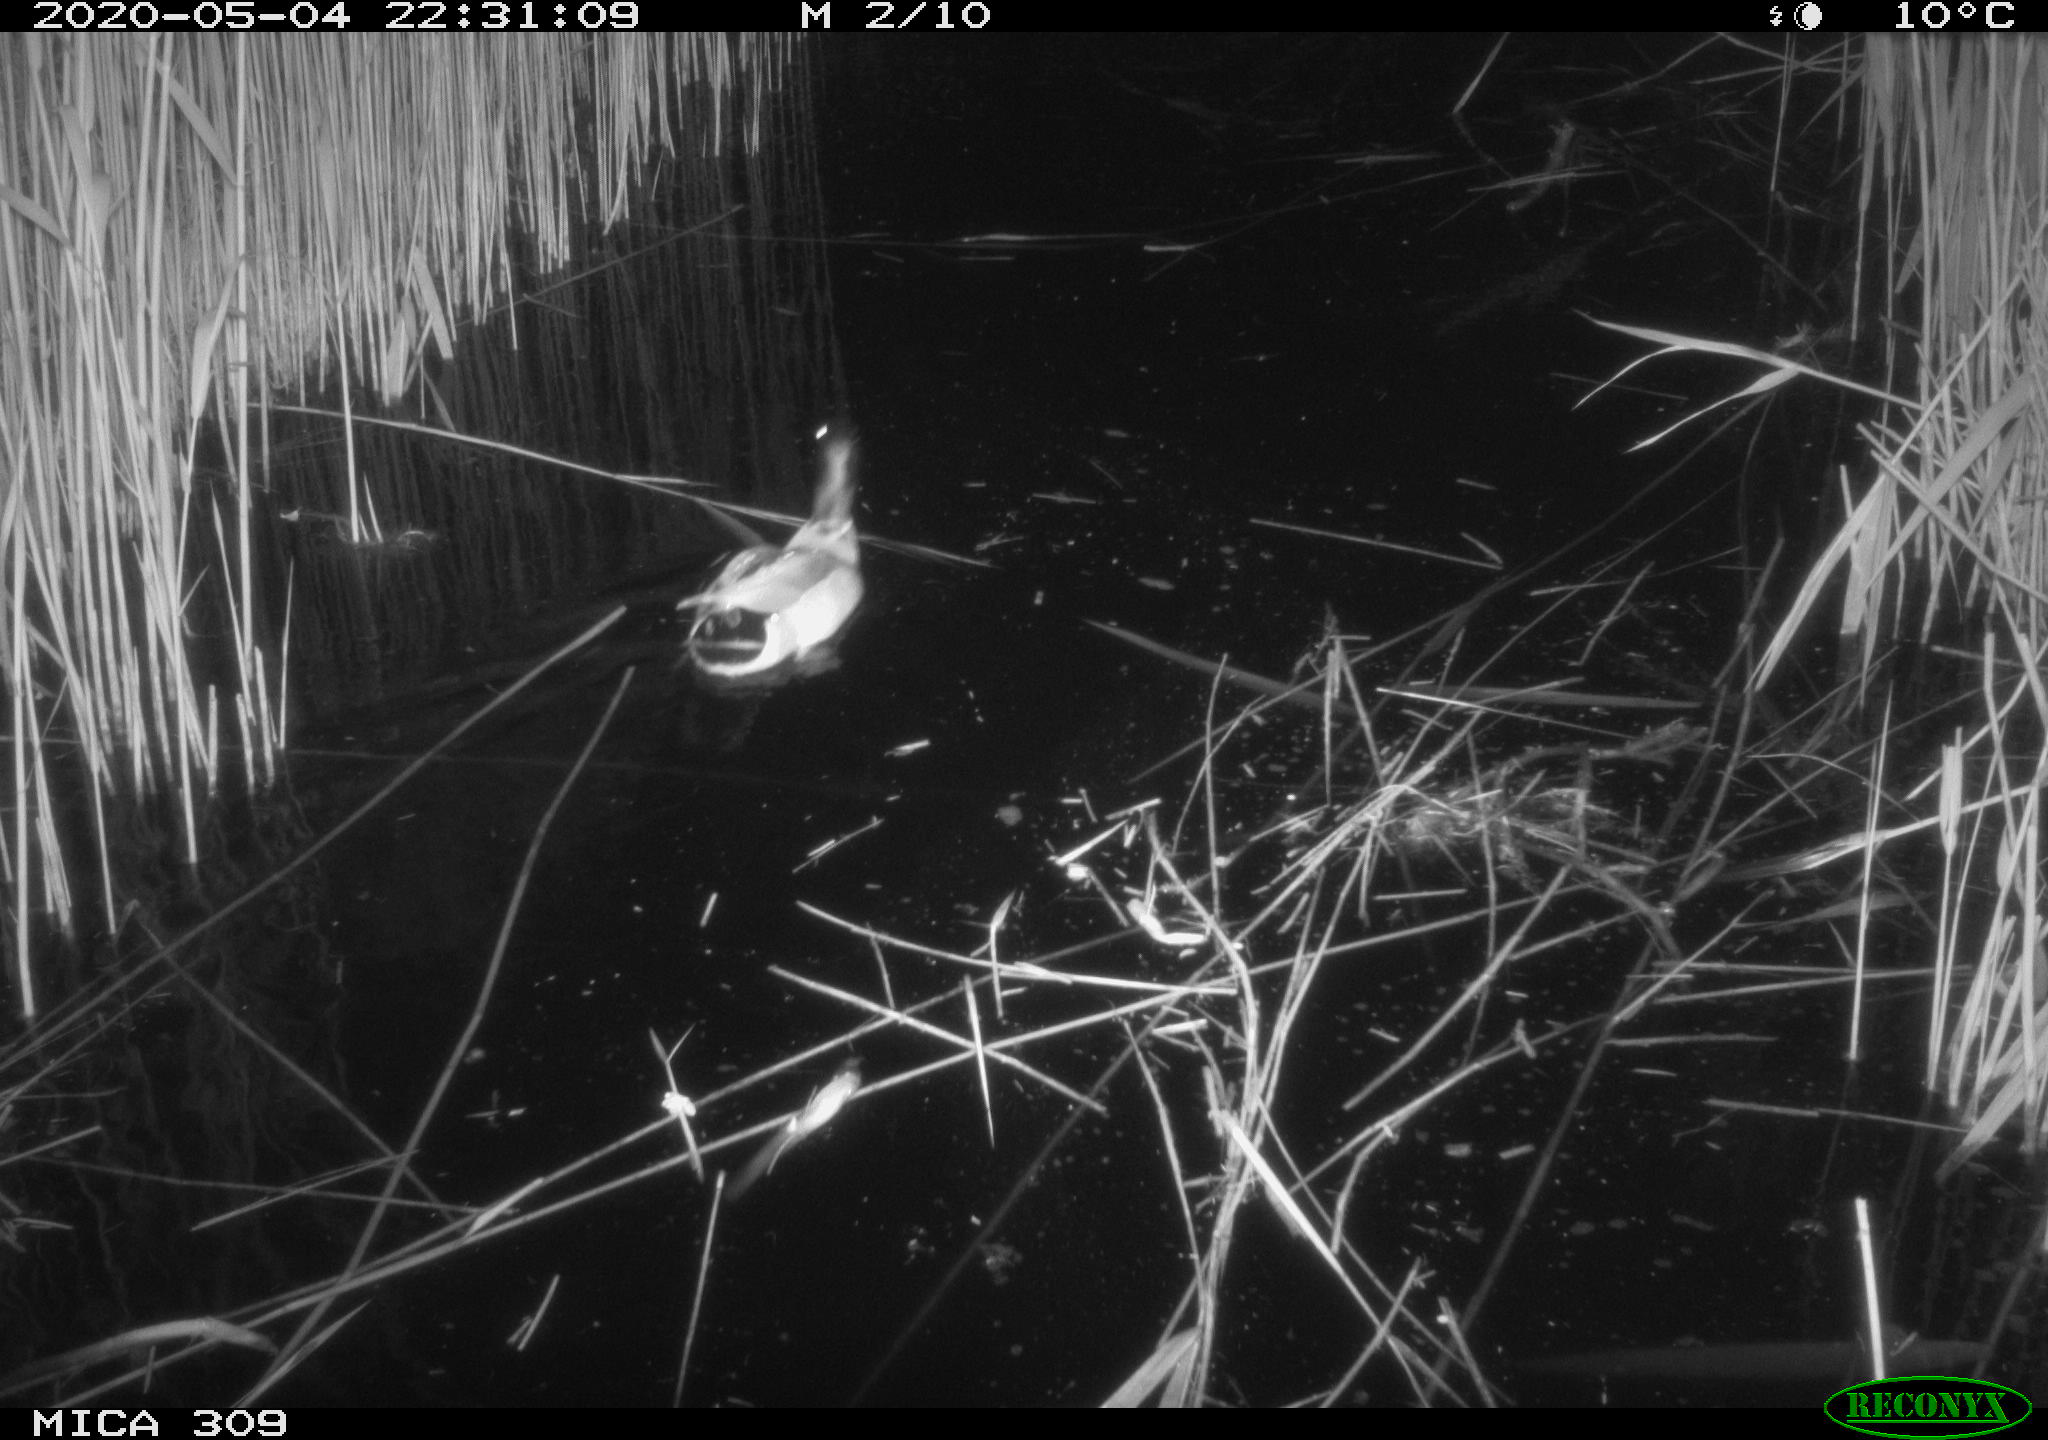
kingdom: Animalia
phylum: Chordata
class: Aves
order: Anseriformes
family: Anatidae
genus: Anas
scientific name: Anas platyrhynchos
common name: Mallard
